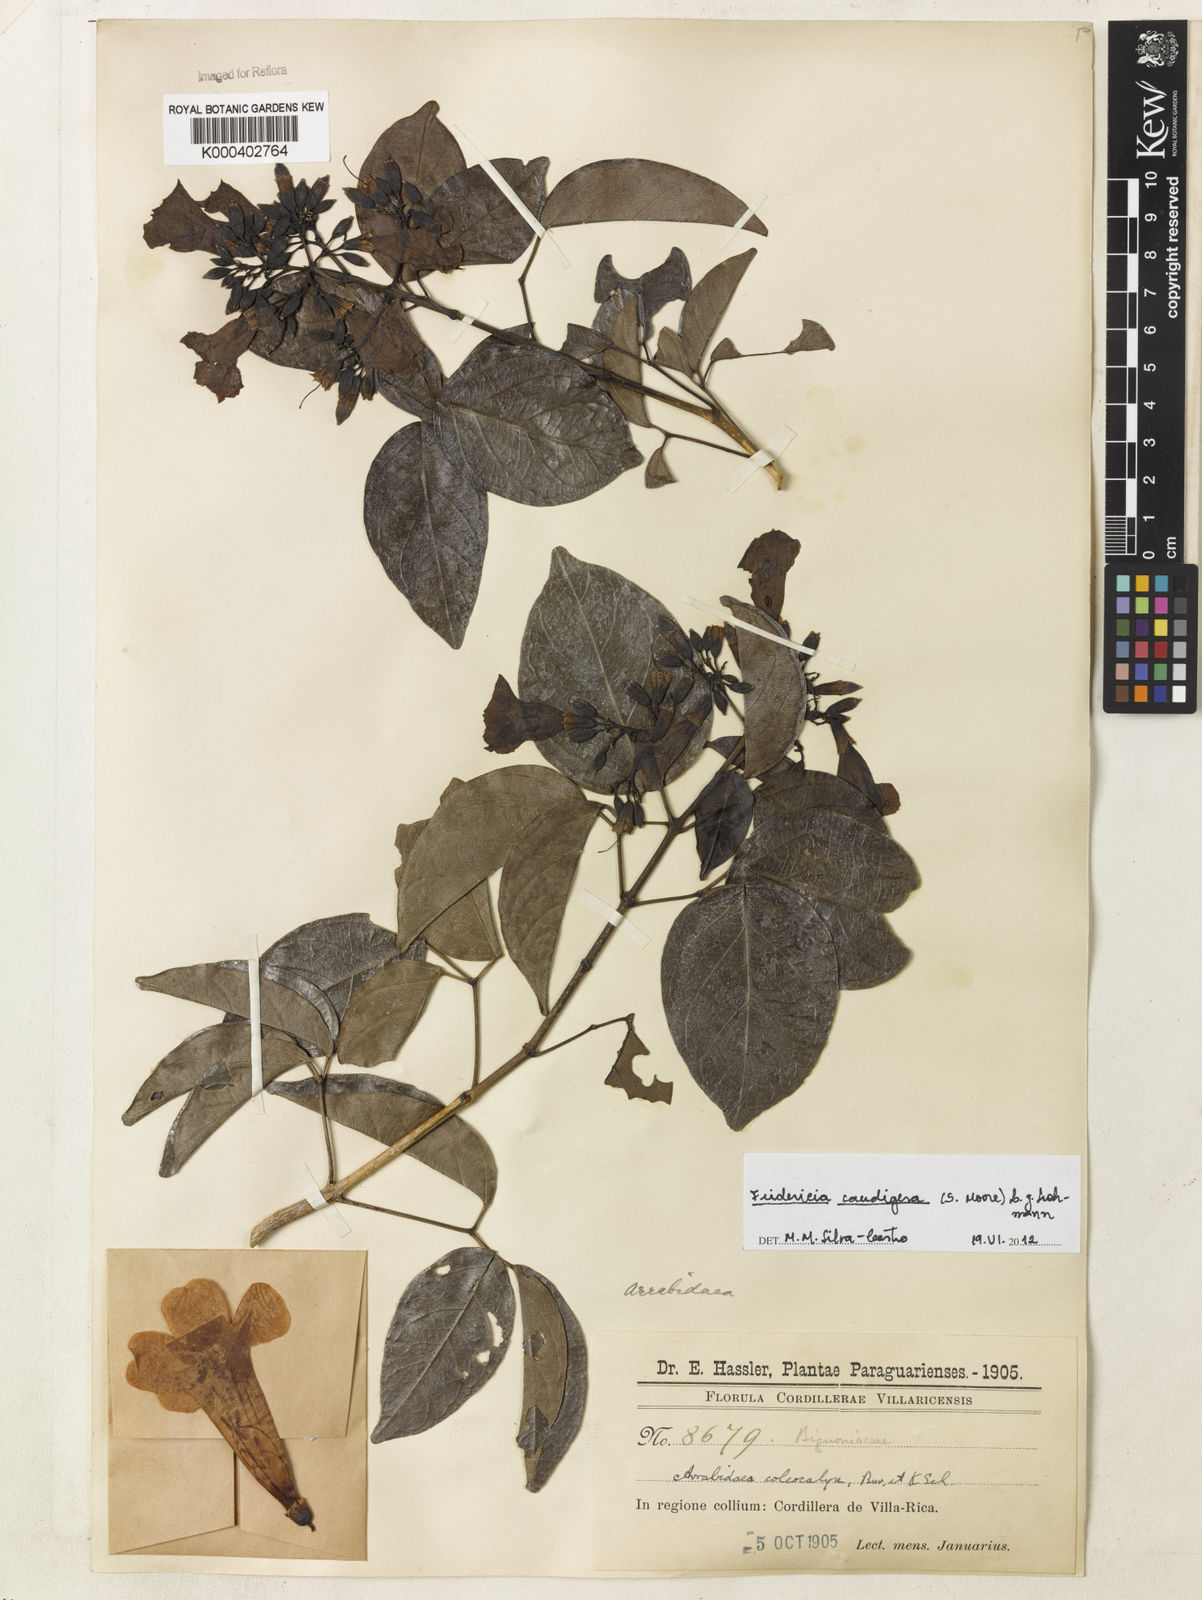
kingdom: Plantae
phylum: Tracheophyta
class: Magnoliopsida
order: Lamiales
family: Bignoniaceae
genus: Fridericia
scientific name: Fridericia caudigera
